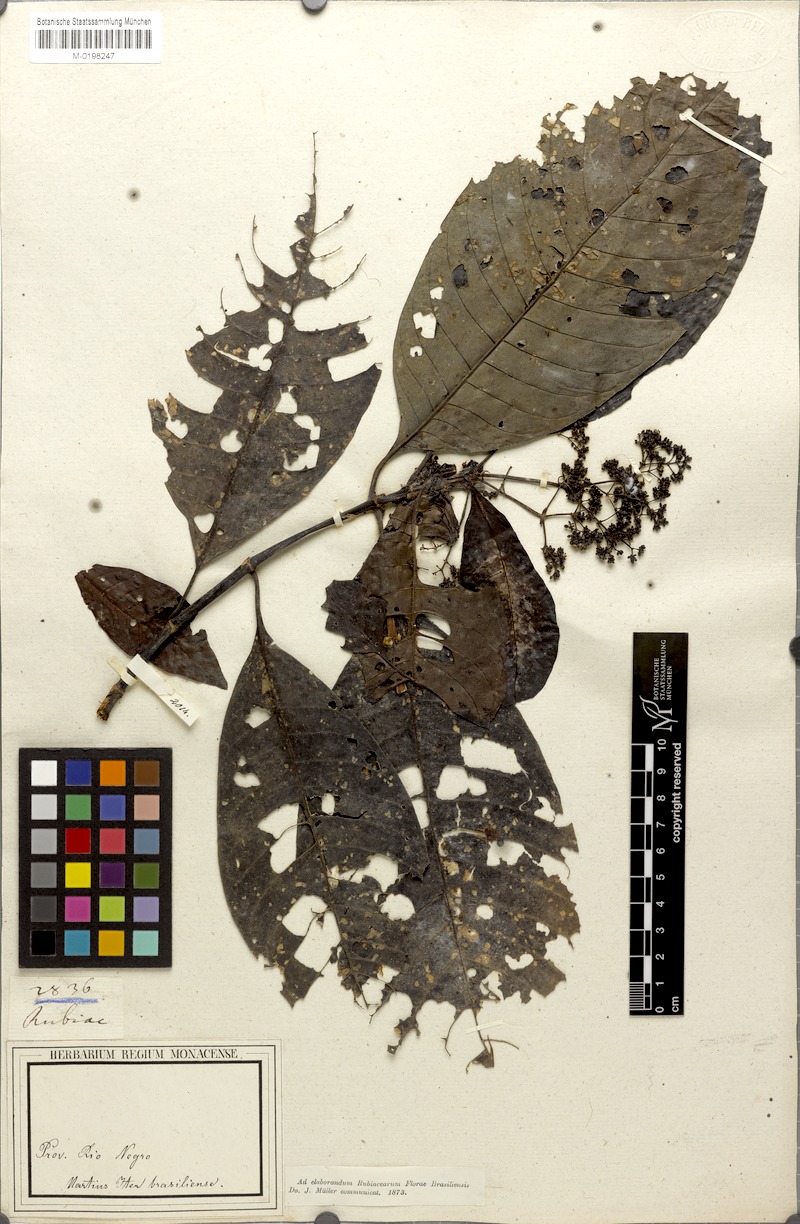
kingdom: Plantae
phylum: Tracheophyta
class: Magnoliopsida
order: Gentianales
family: Rubiaceae
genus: Psychotria
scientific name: Psychotria guianensis
